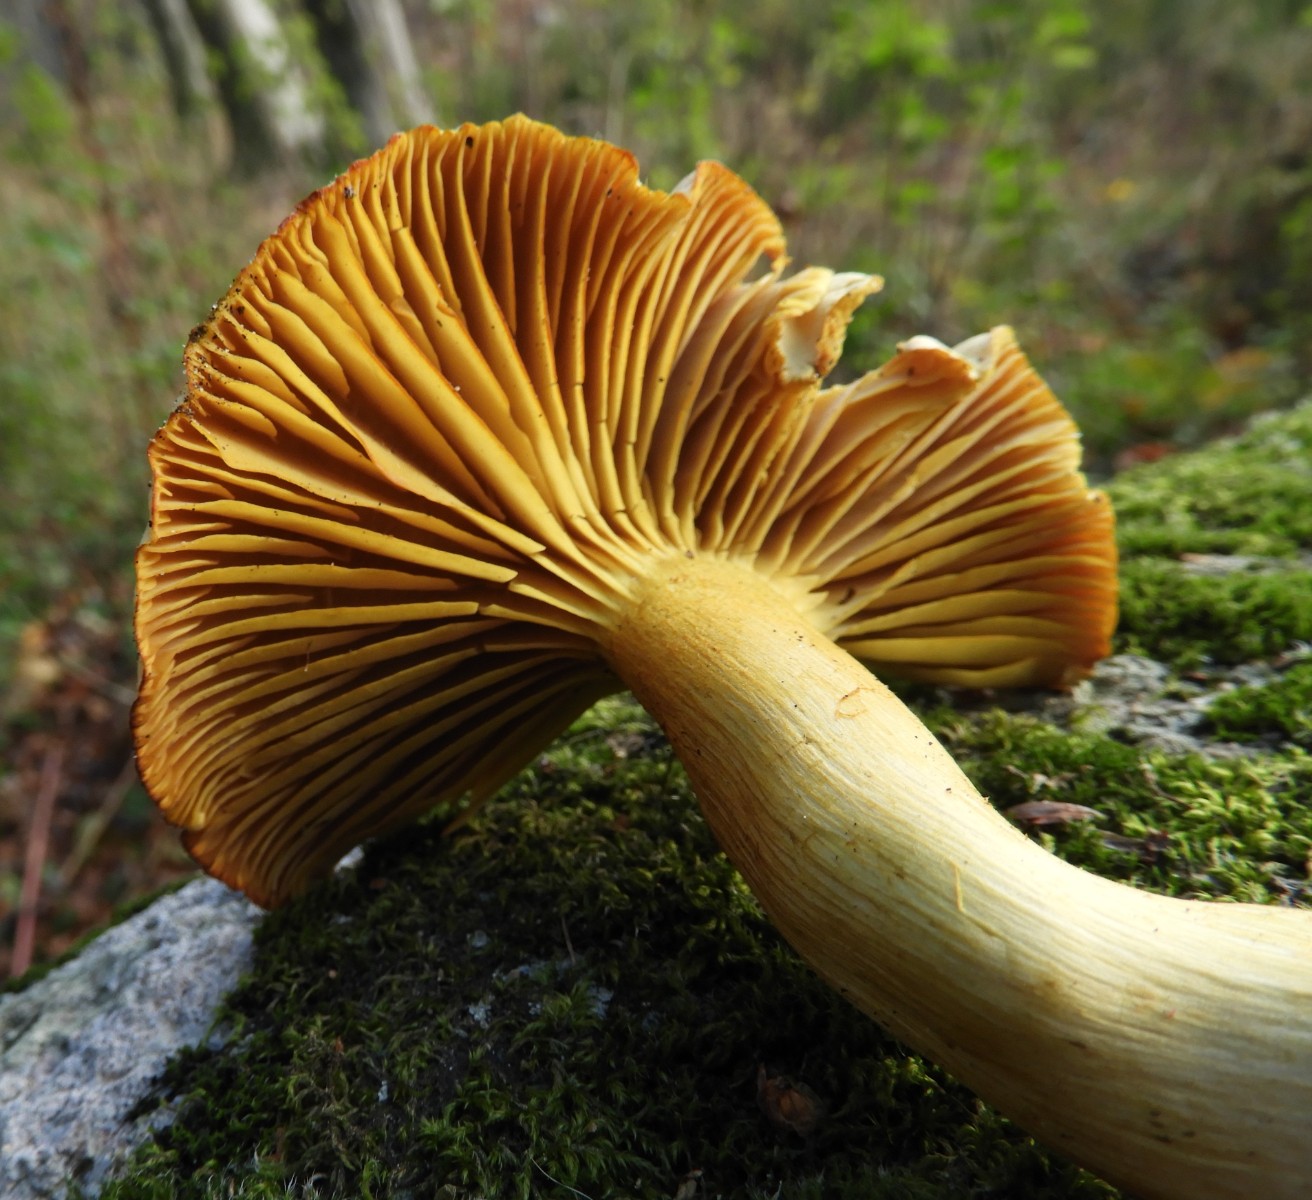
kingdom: Fungi
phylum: Basidiomycota
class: Agaricomycetes
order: Agaricales
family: Tricholomataceae
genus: Tricholoma
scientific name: Tricholoma sulphureum
